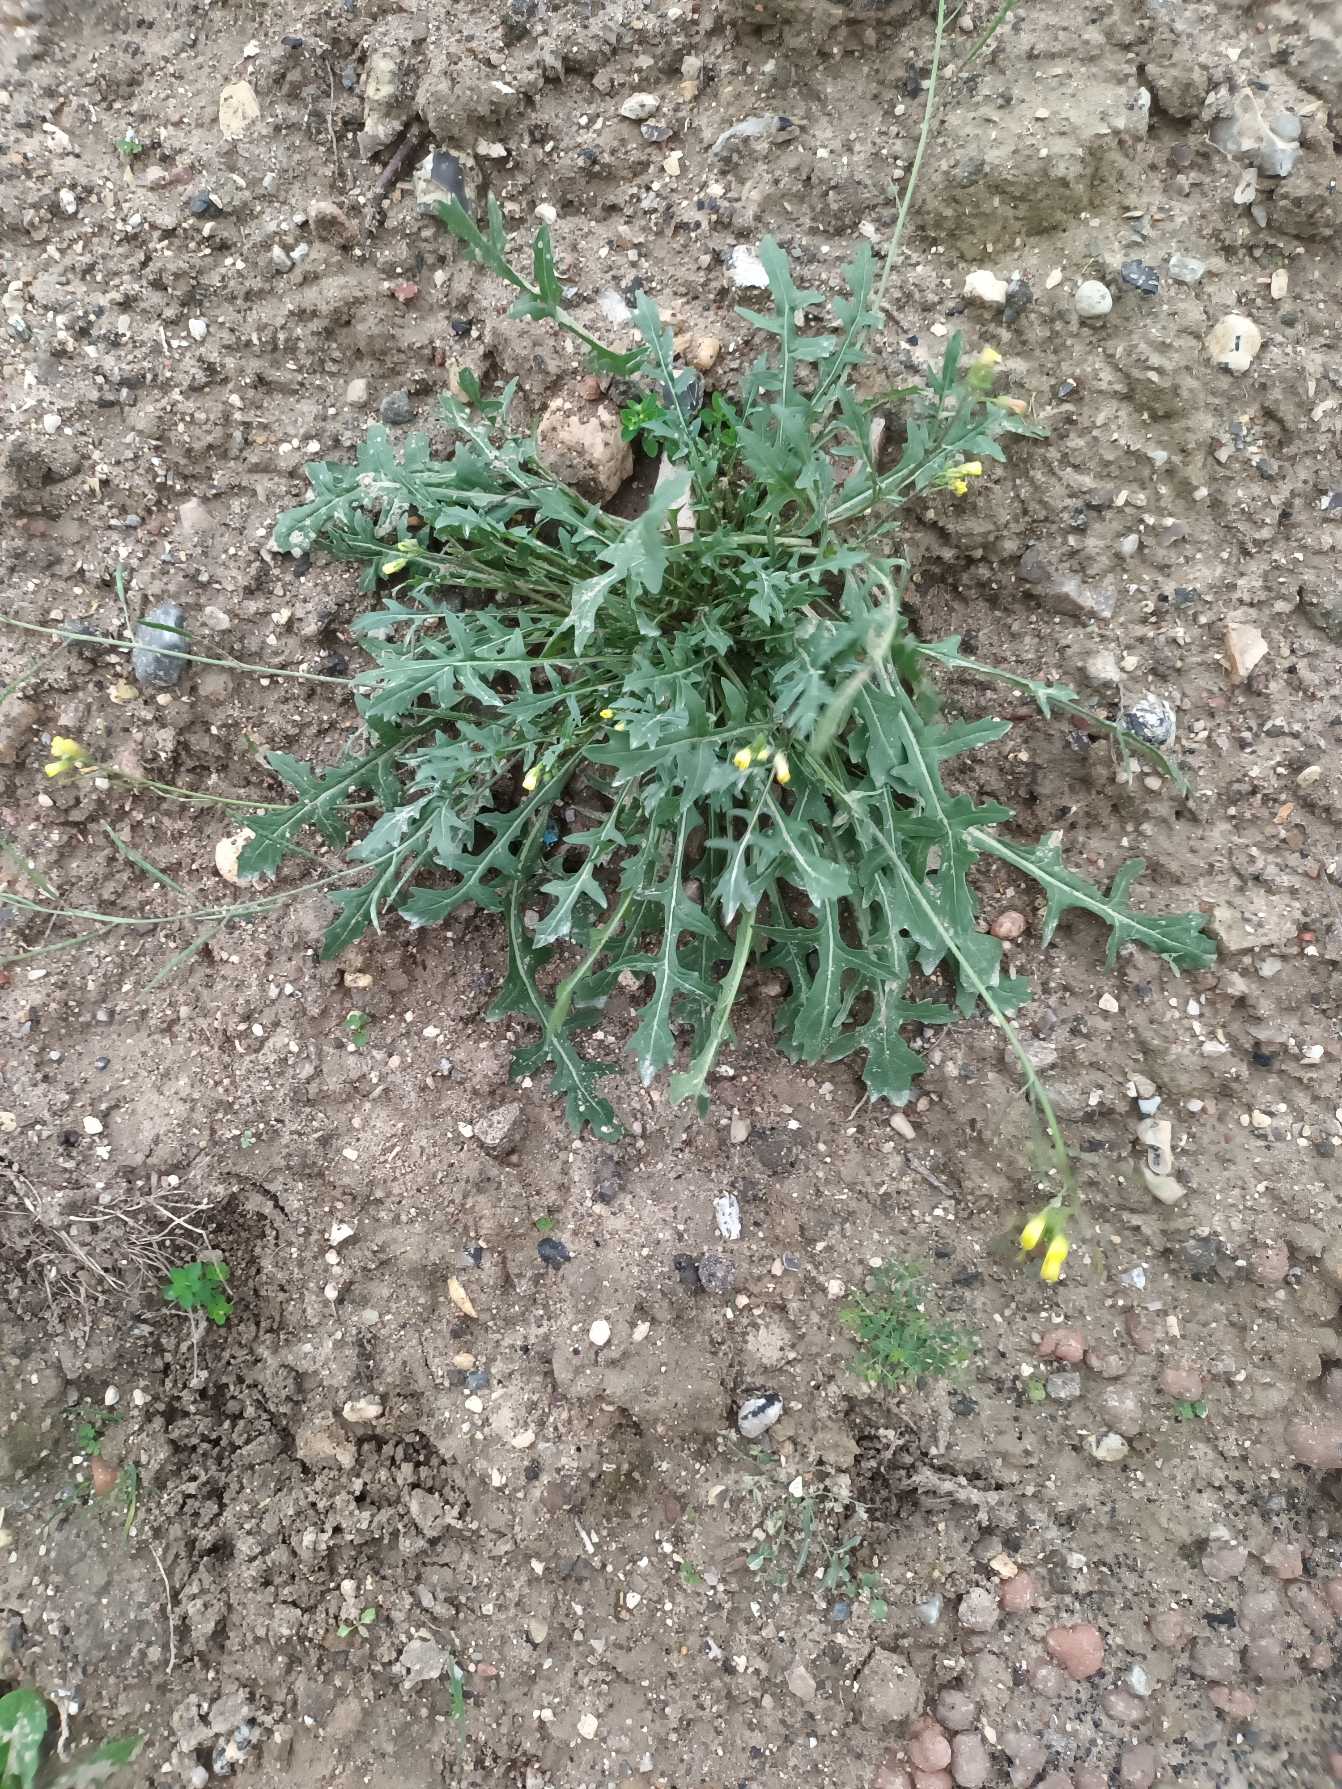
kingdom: Plantae
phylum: Tracheophyta
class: Magnoliopsida
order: Brassicales
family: Brassicaceae
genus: Diplotaxis
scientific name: Diplotaxis muralis
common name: Mursennep
